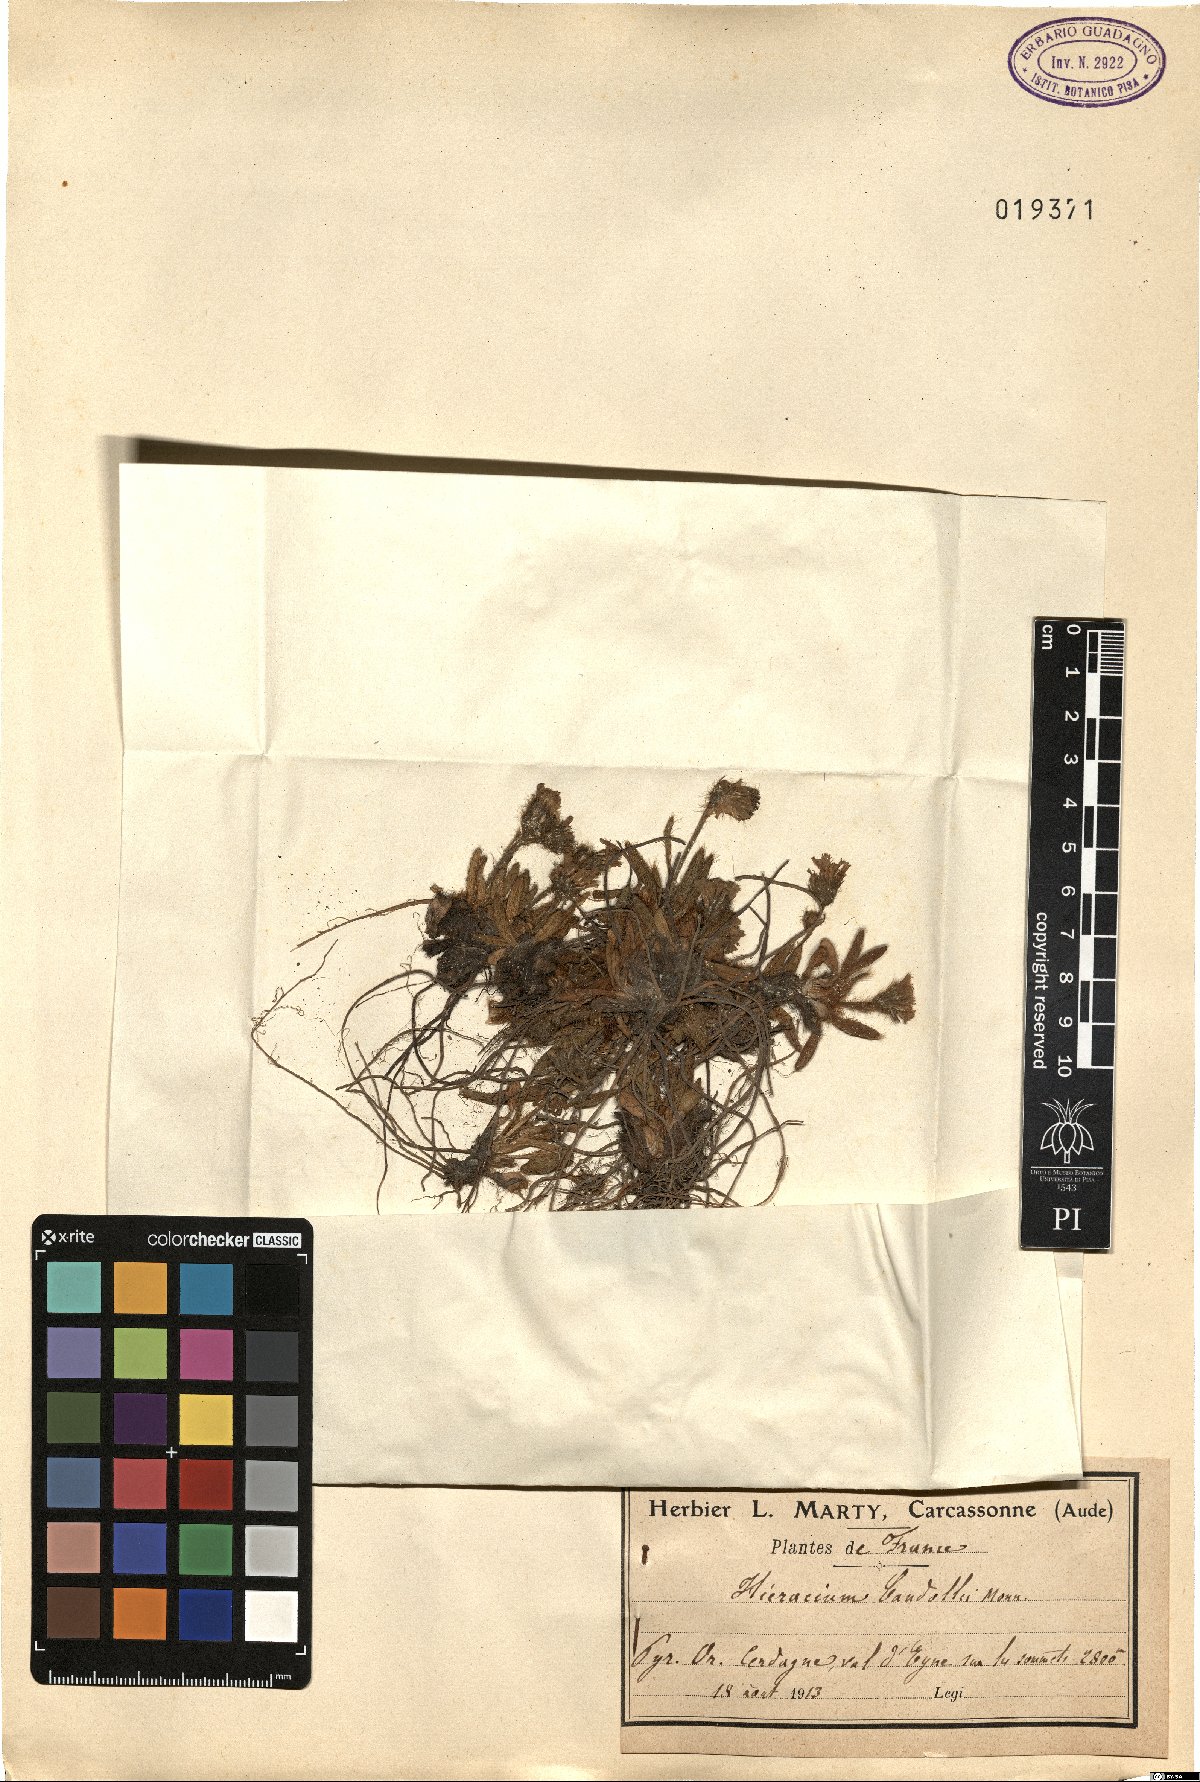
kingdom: Plantae
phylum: Tracheophyta
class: Magnoliopsida
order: Asterales
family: Asteraceae
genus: Pilosella
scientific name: Pilosella breviscapa
